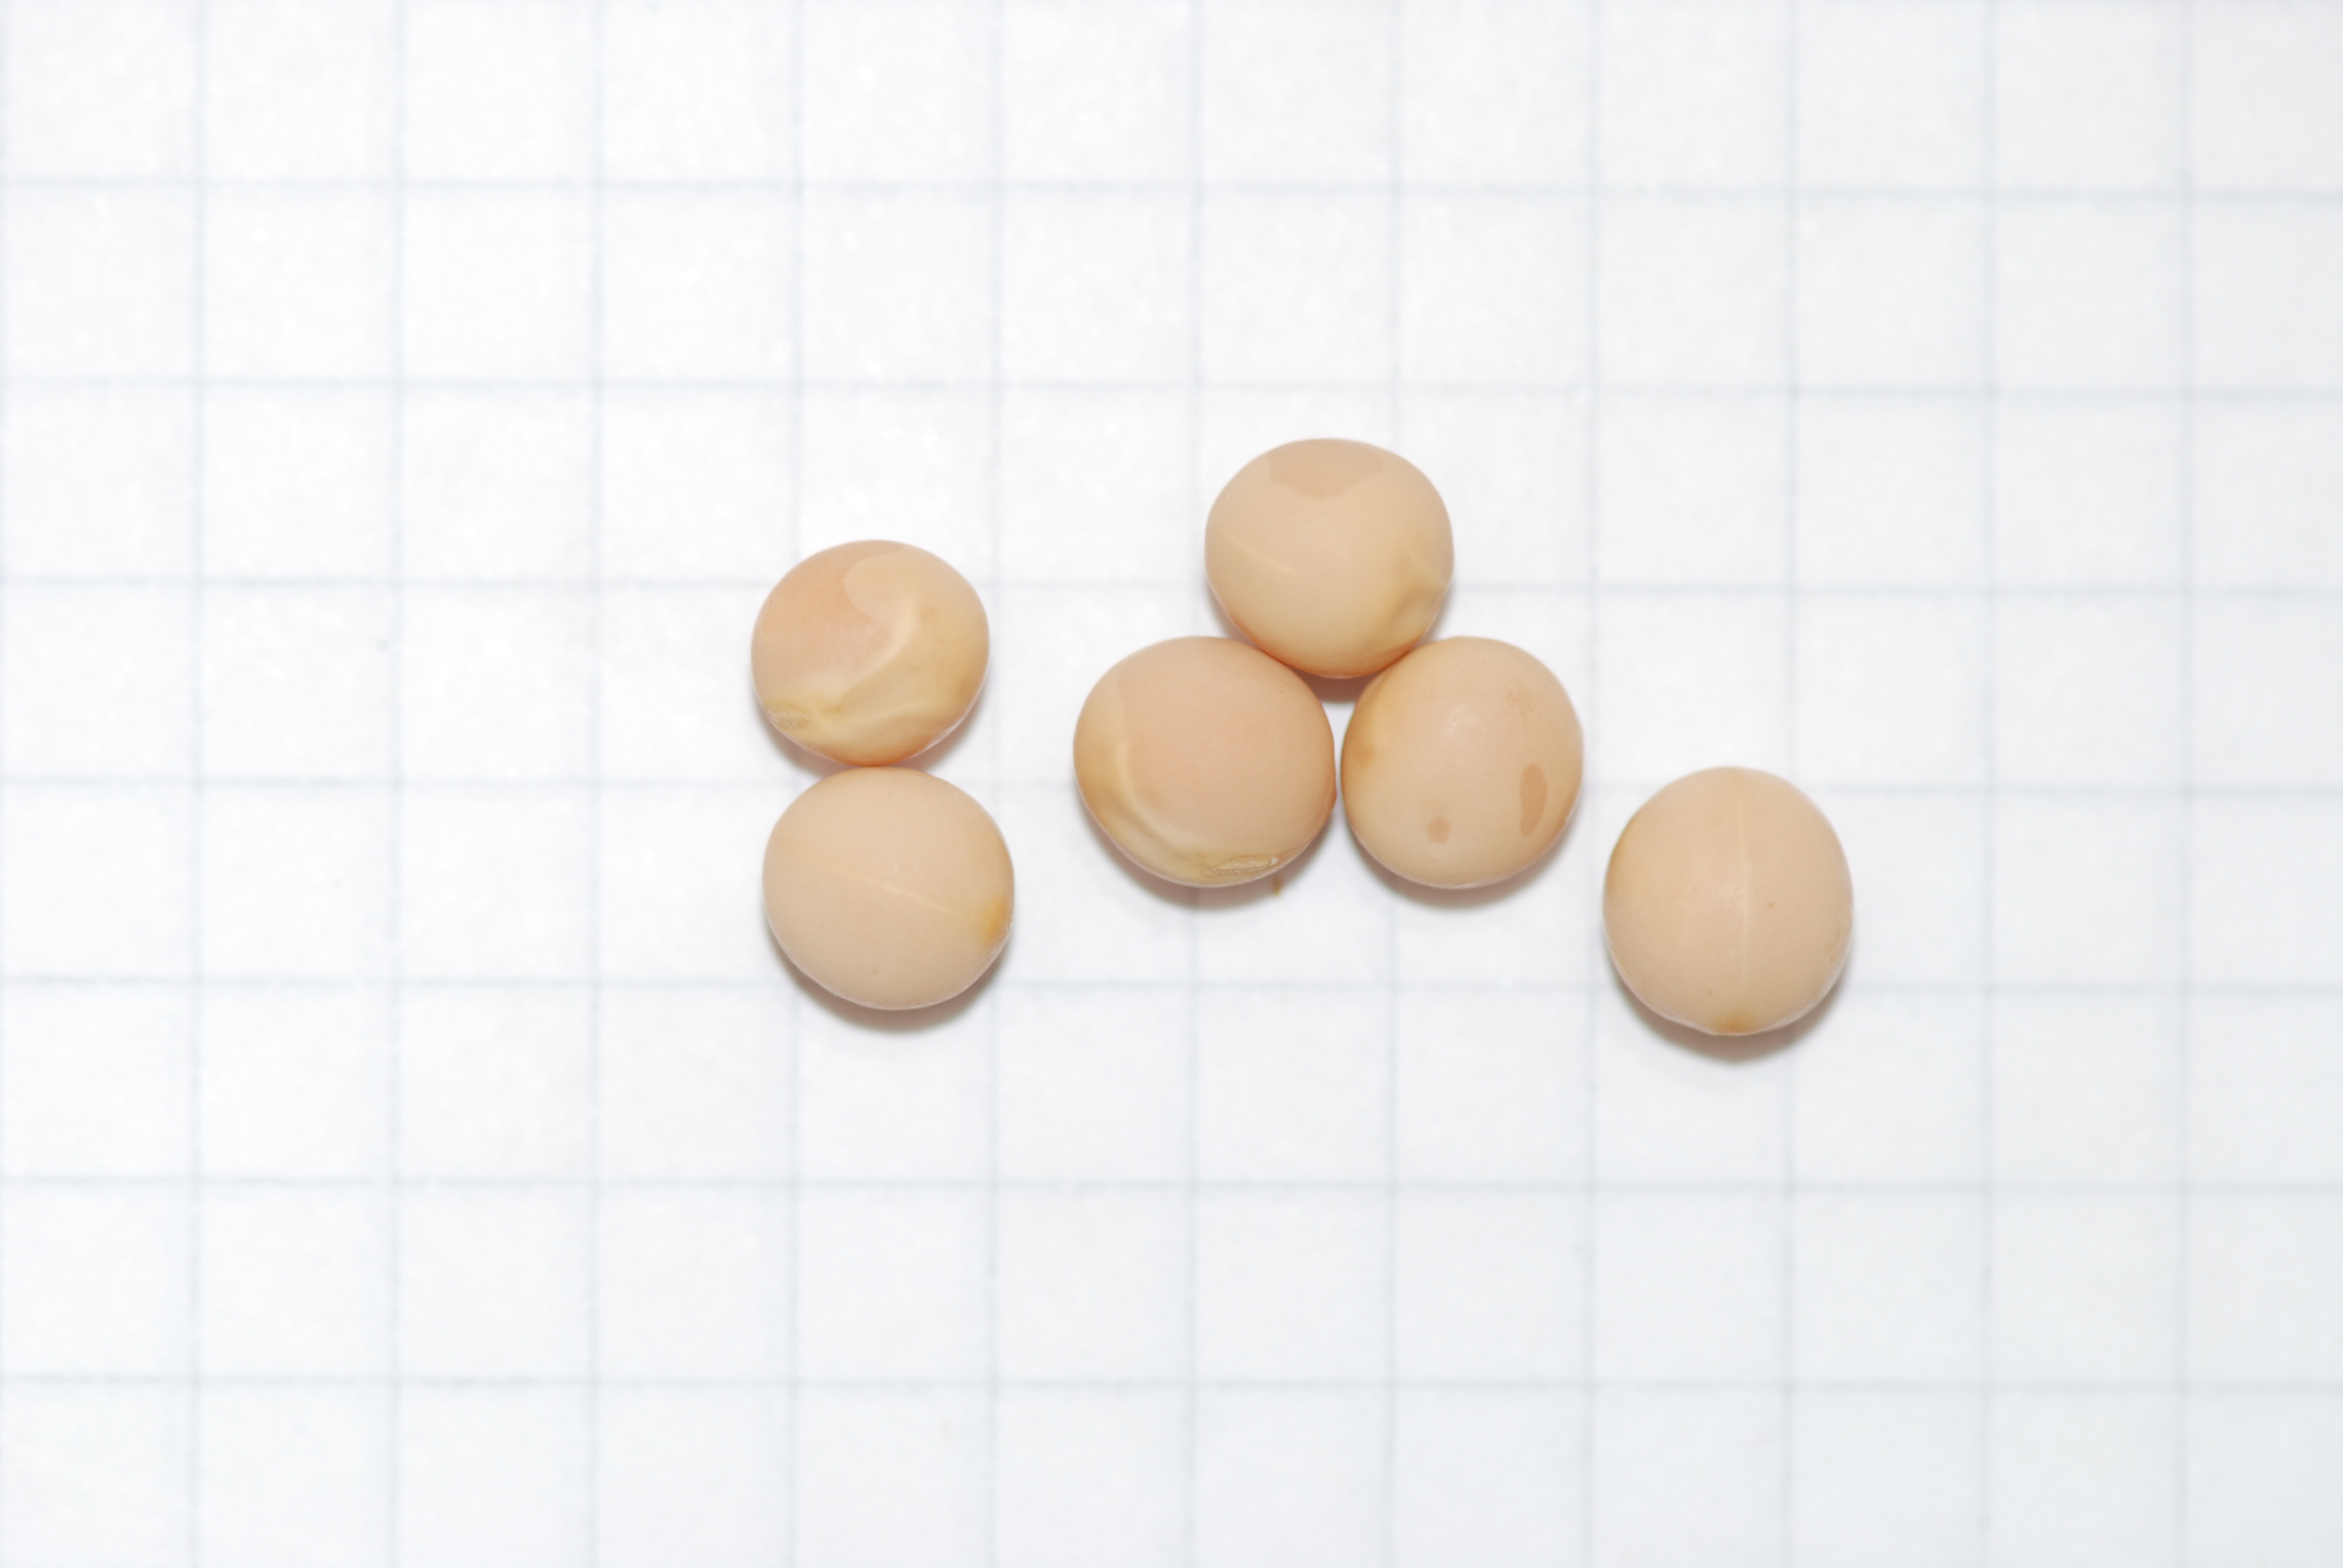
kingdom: Plantae
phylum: Tracheophyta
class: Liliopsida
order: Poales
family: Poaceae
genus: Hordeum
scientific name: Hordeum vulgare
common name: Common barley
